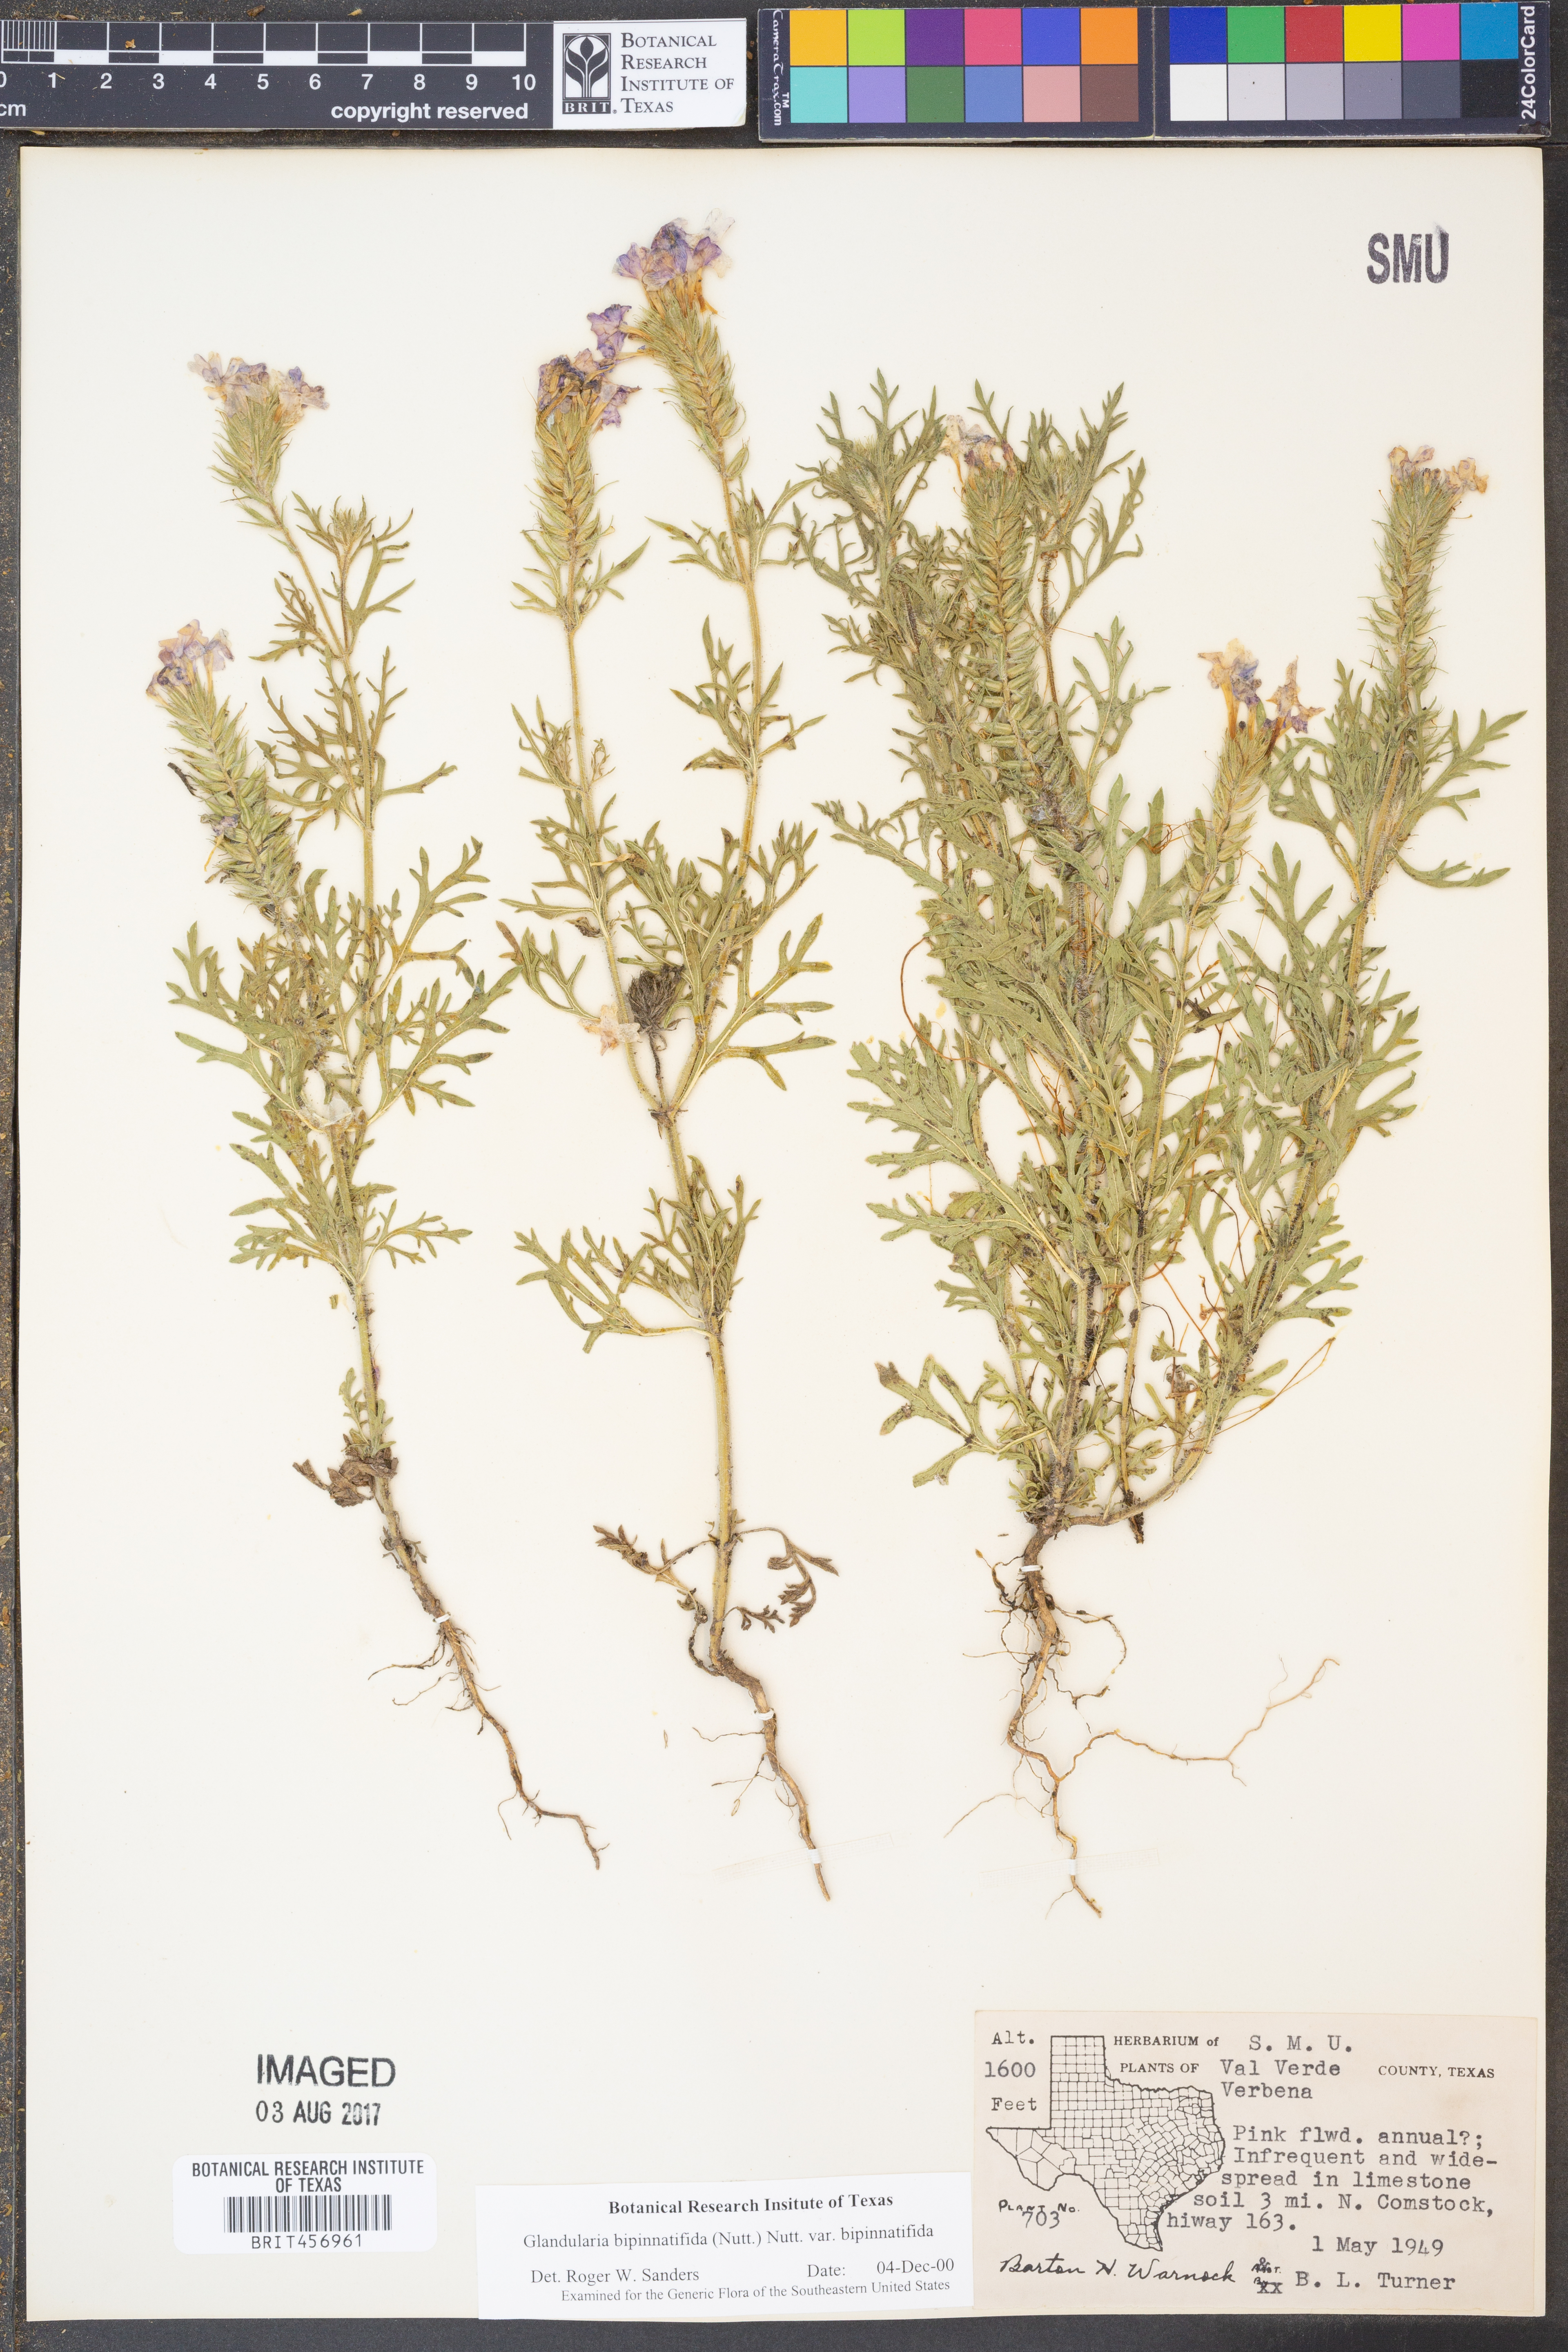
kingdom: Plantae
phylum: Tracheophyta
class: Magnoliopsida
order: Lamiales
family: Verbenaceae
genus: Verbena
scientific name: Verbena bipinnatifida
